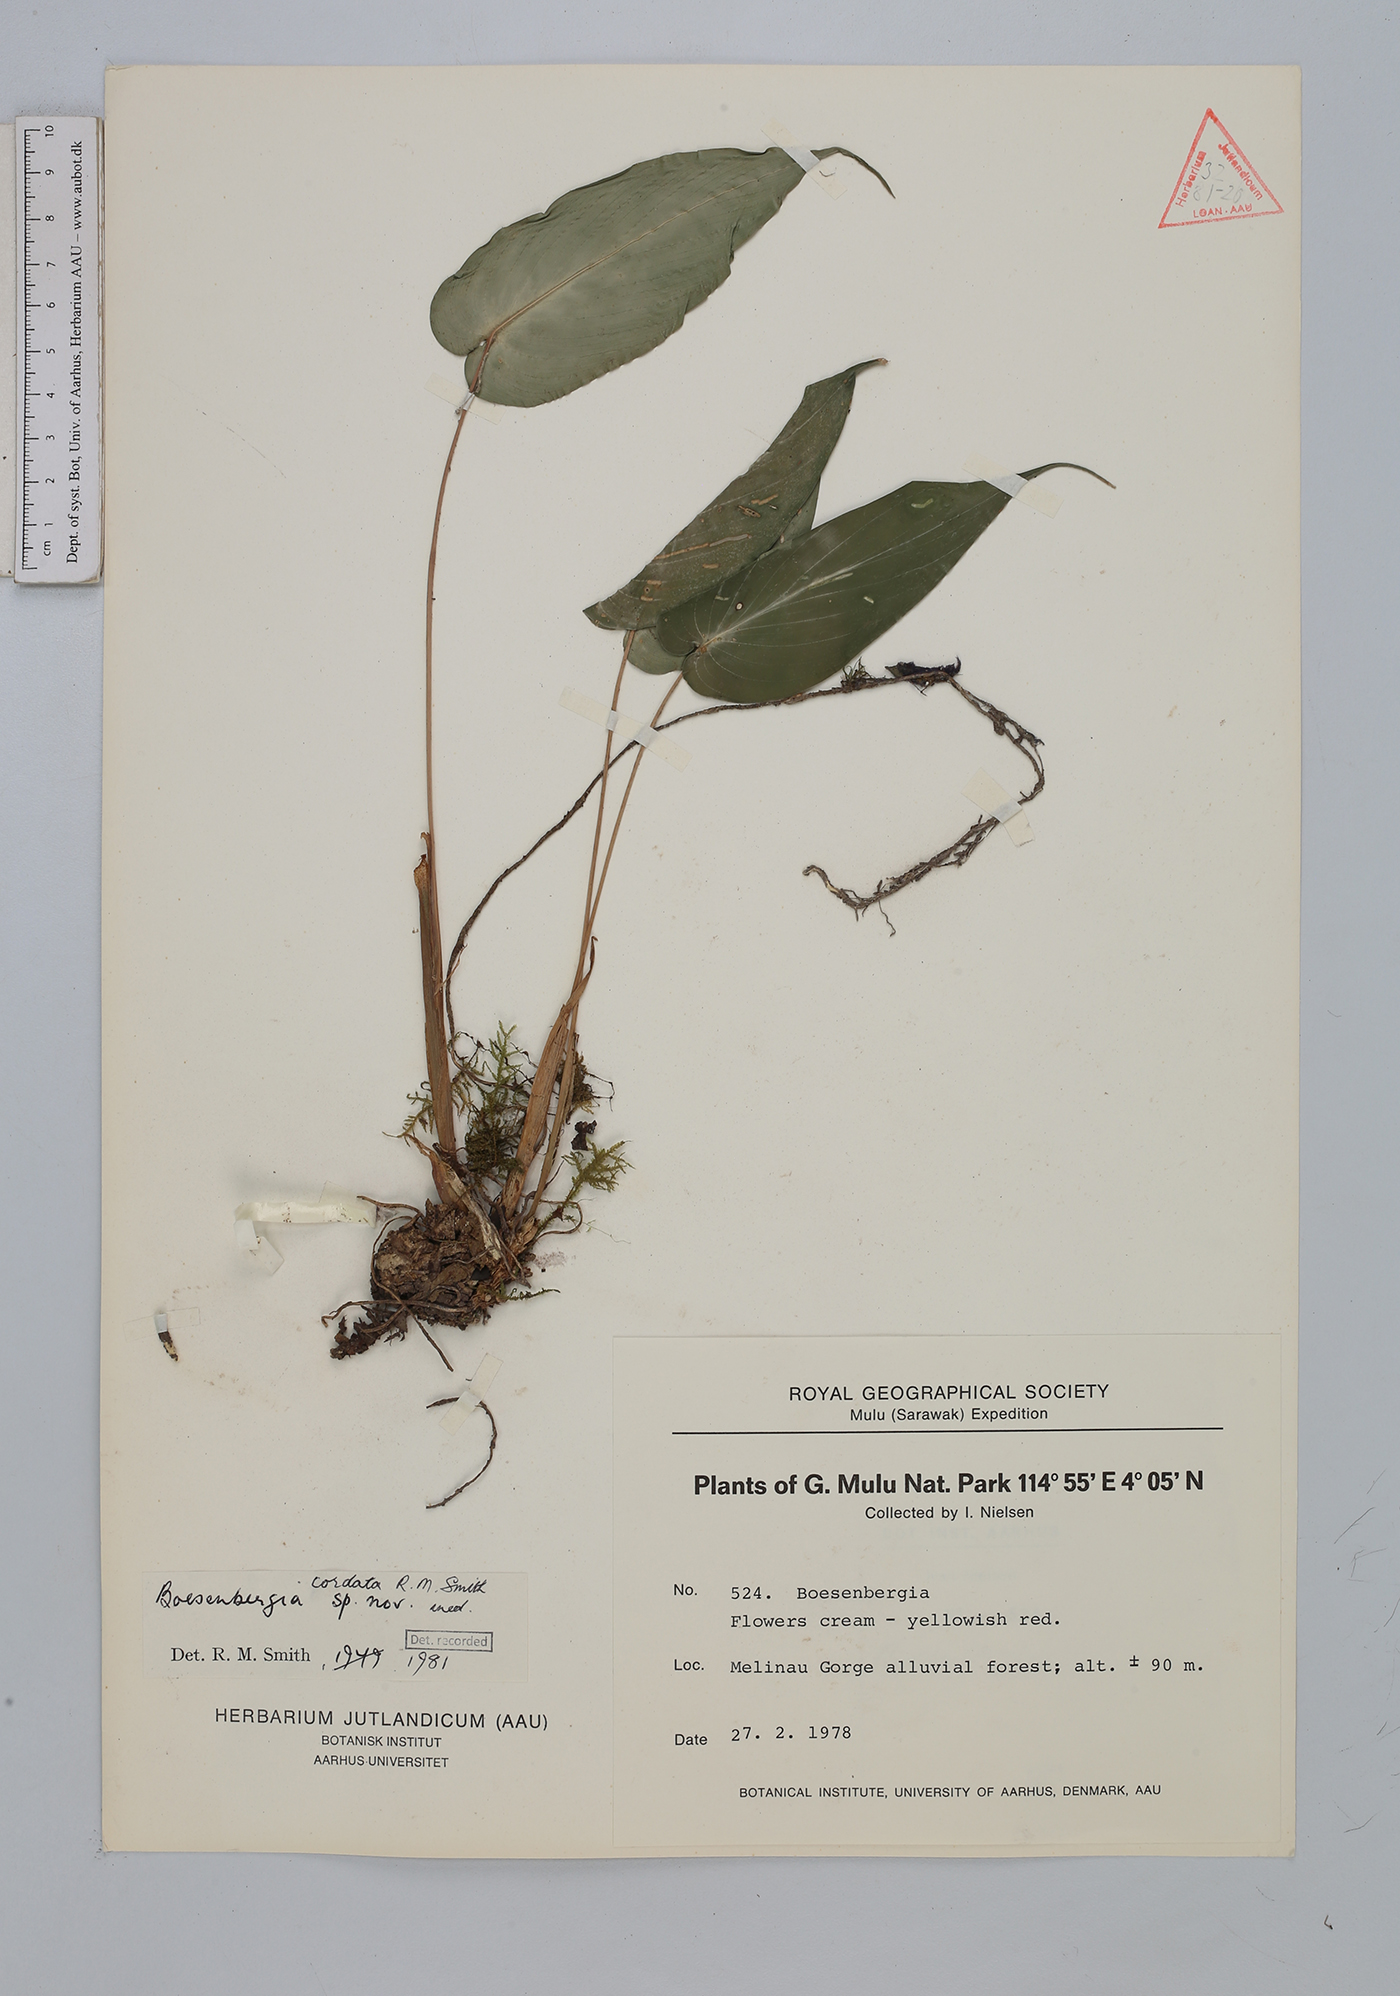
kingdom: Plantae
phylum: Tracheophyta
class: Liliopsida
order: Zingiberales
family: Zingiberaceae
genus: Boesenbergia
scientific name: Boesenbergia cordata
